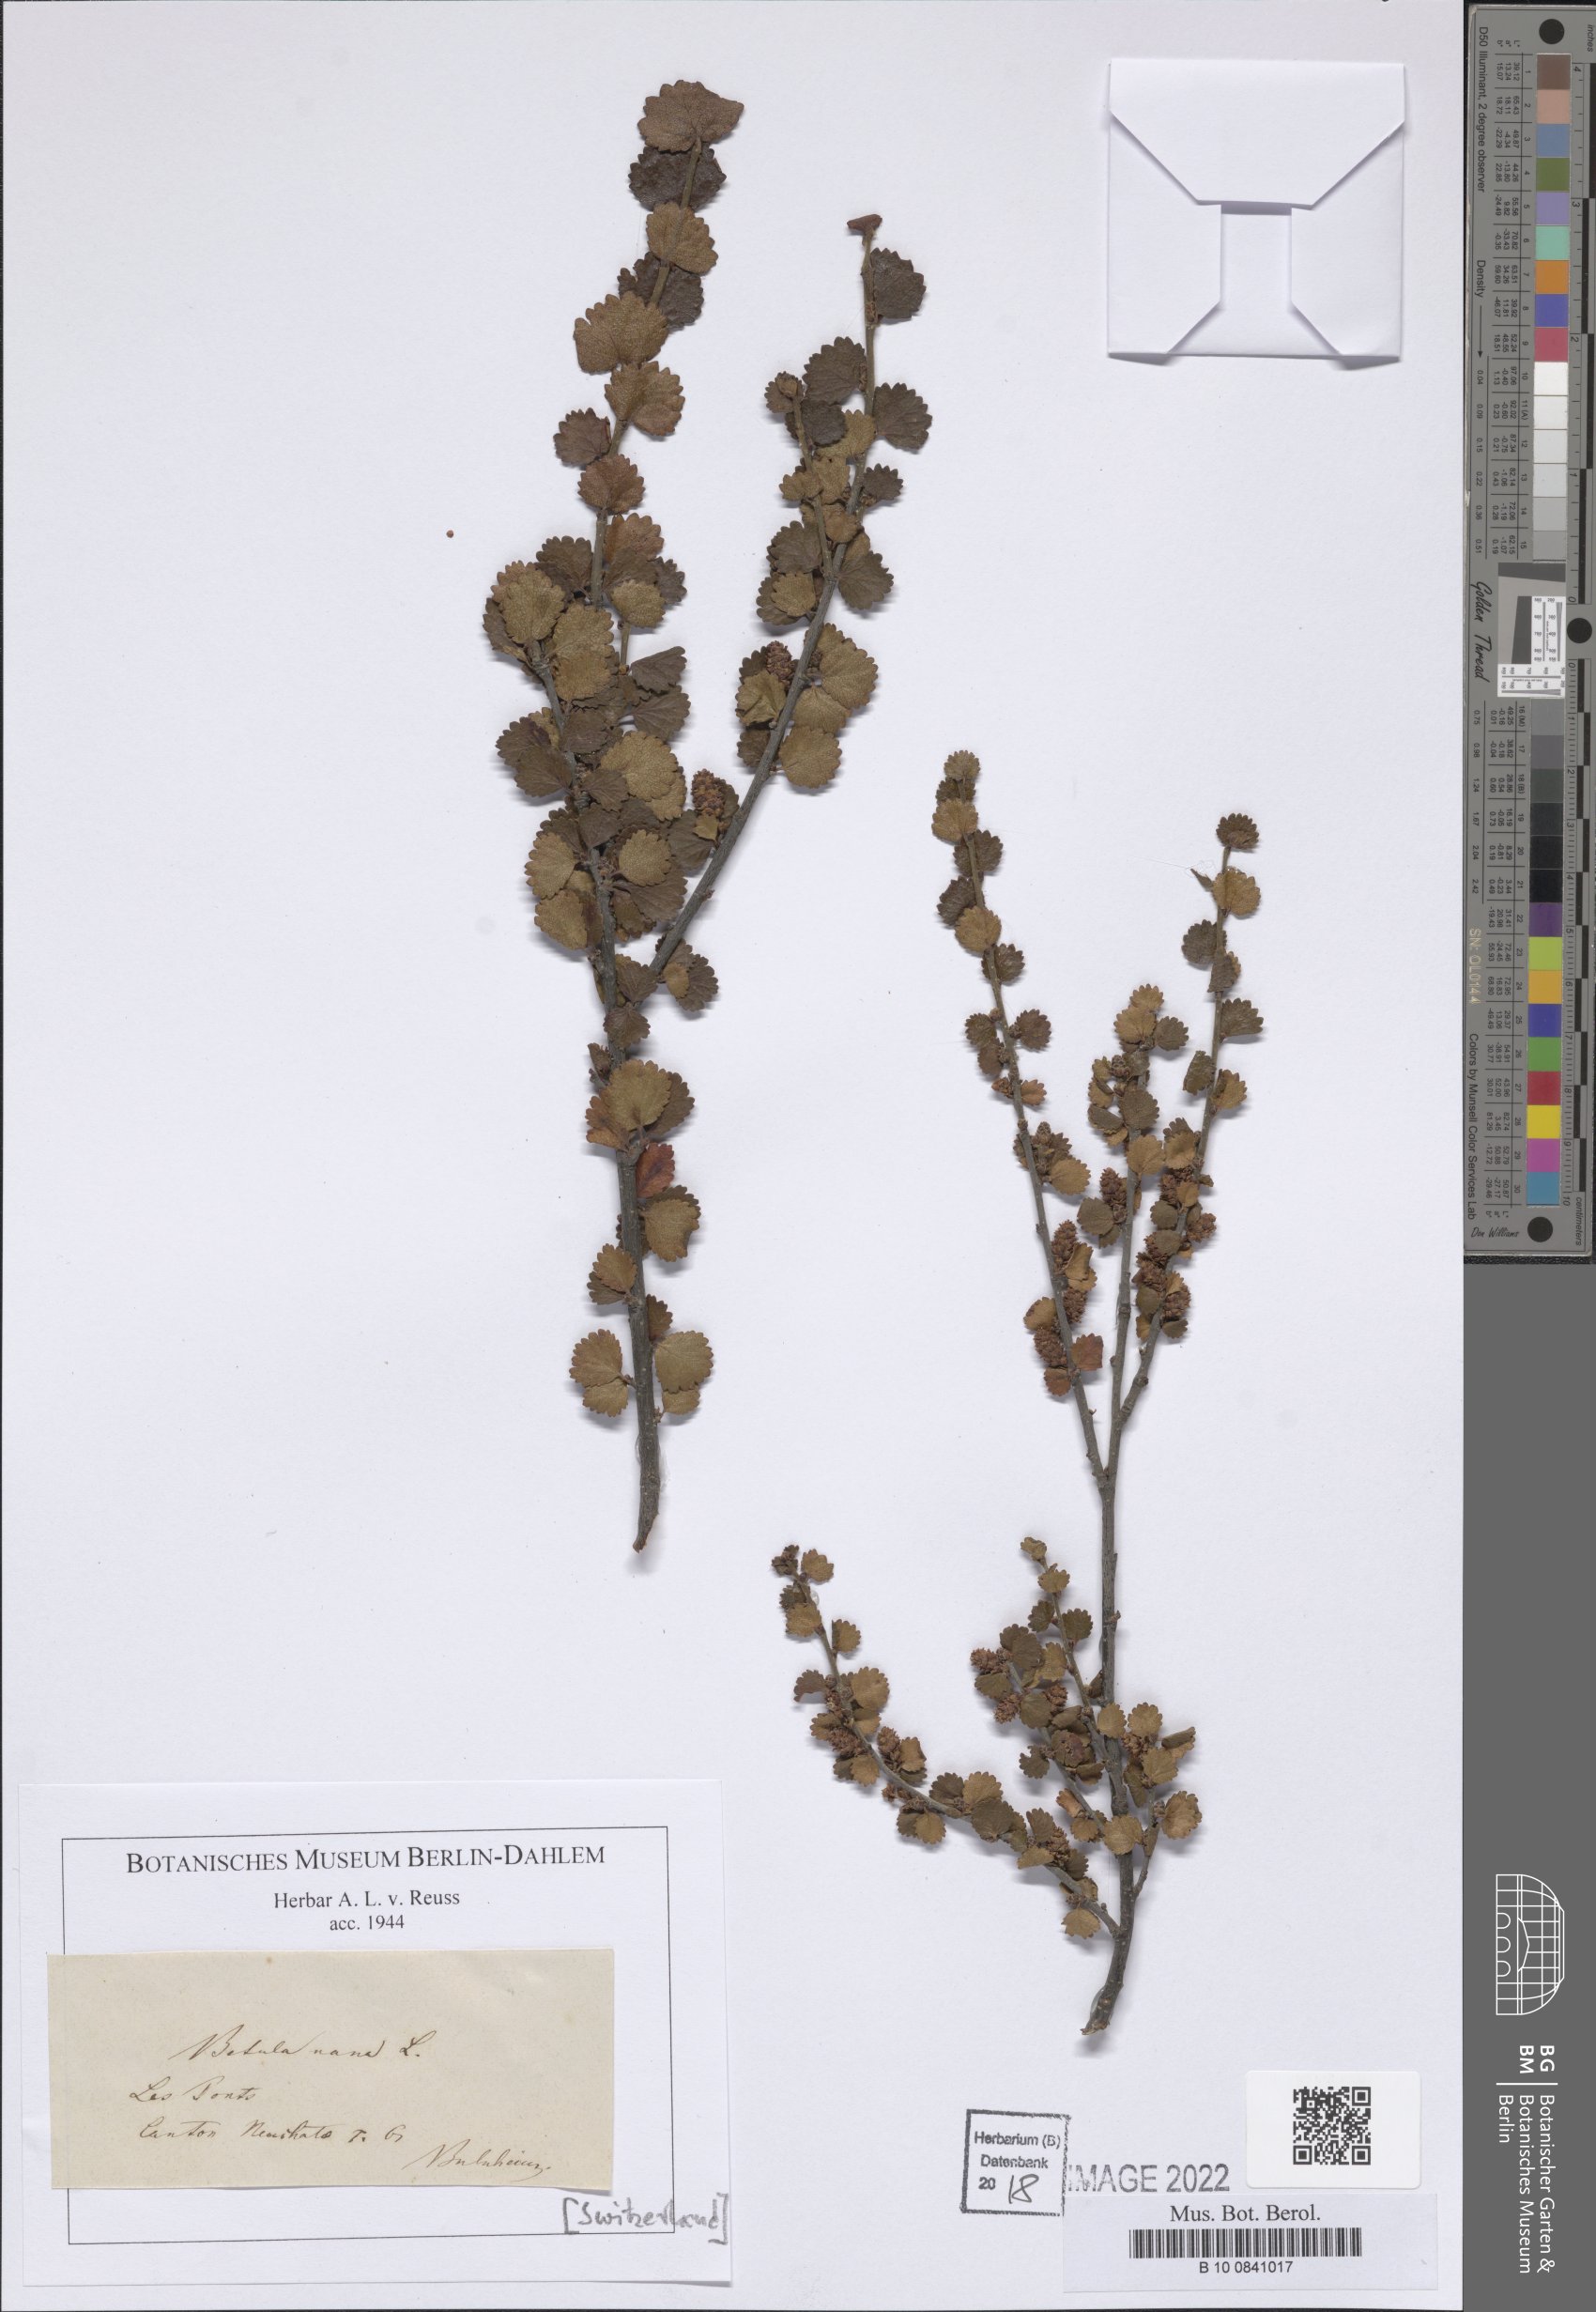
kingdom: Plantae
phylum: Tracheophyta
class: Magnoliopsida
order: Fagales
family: Betulaceae
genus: Betula
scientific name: Betula nana
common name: Arctic dwarf birch
